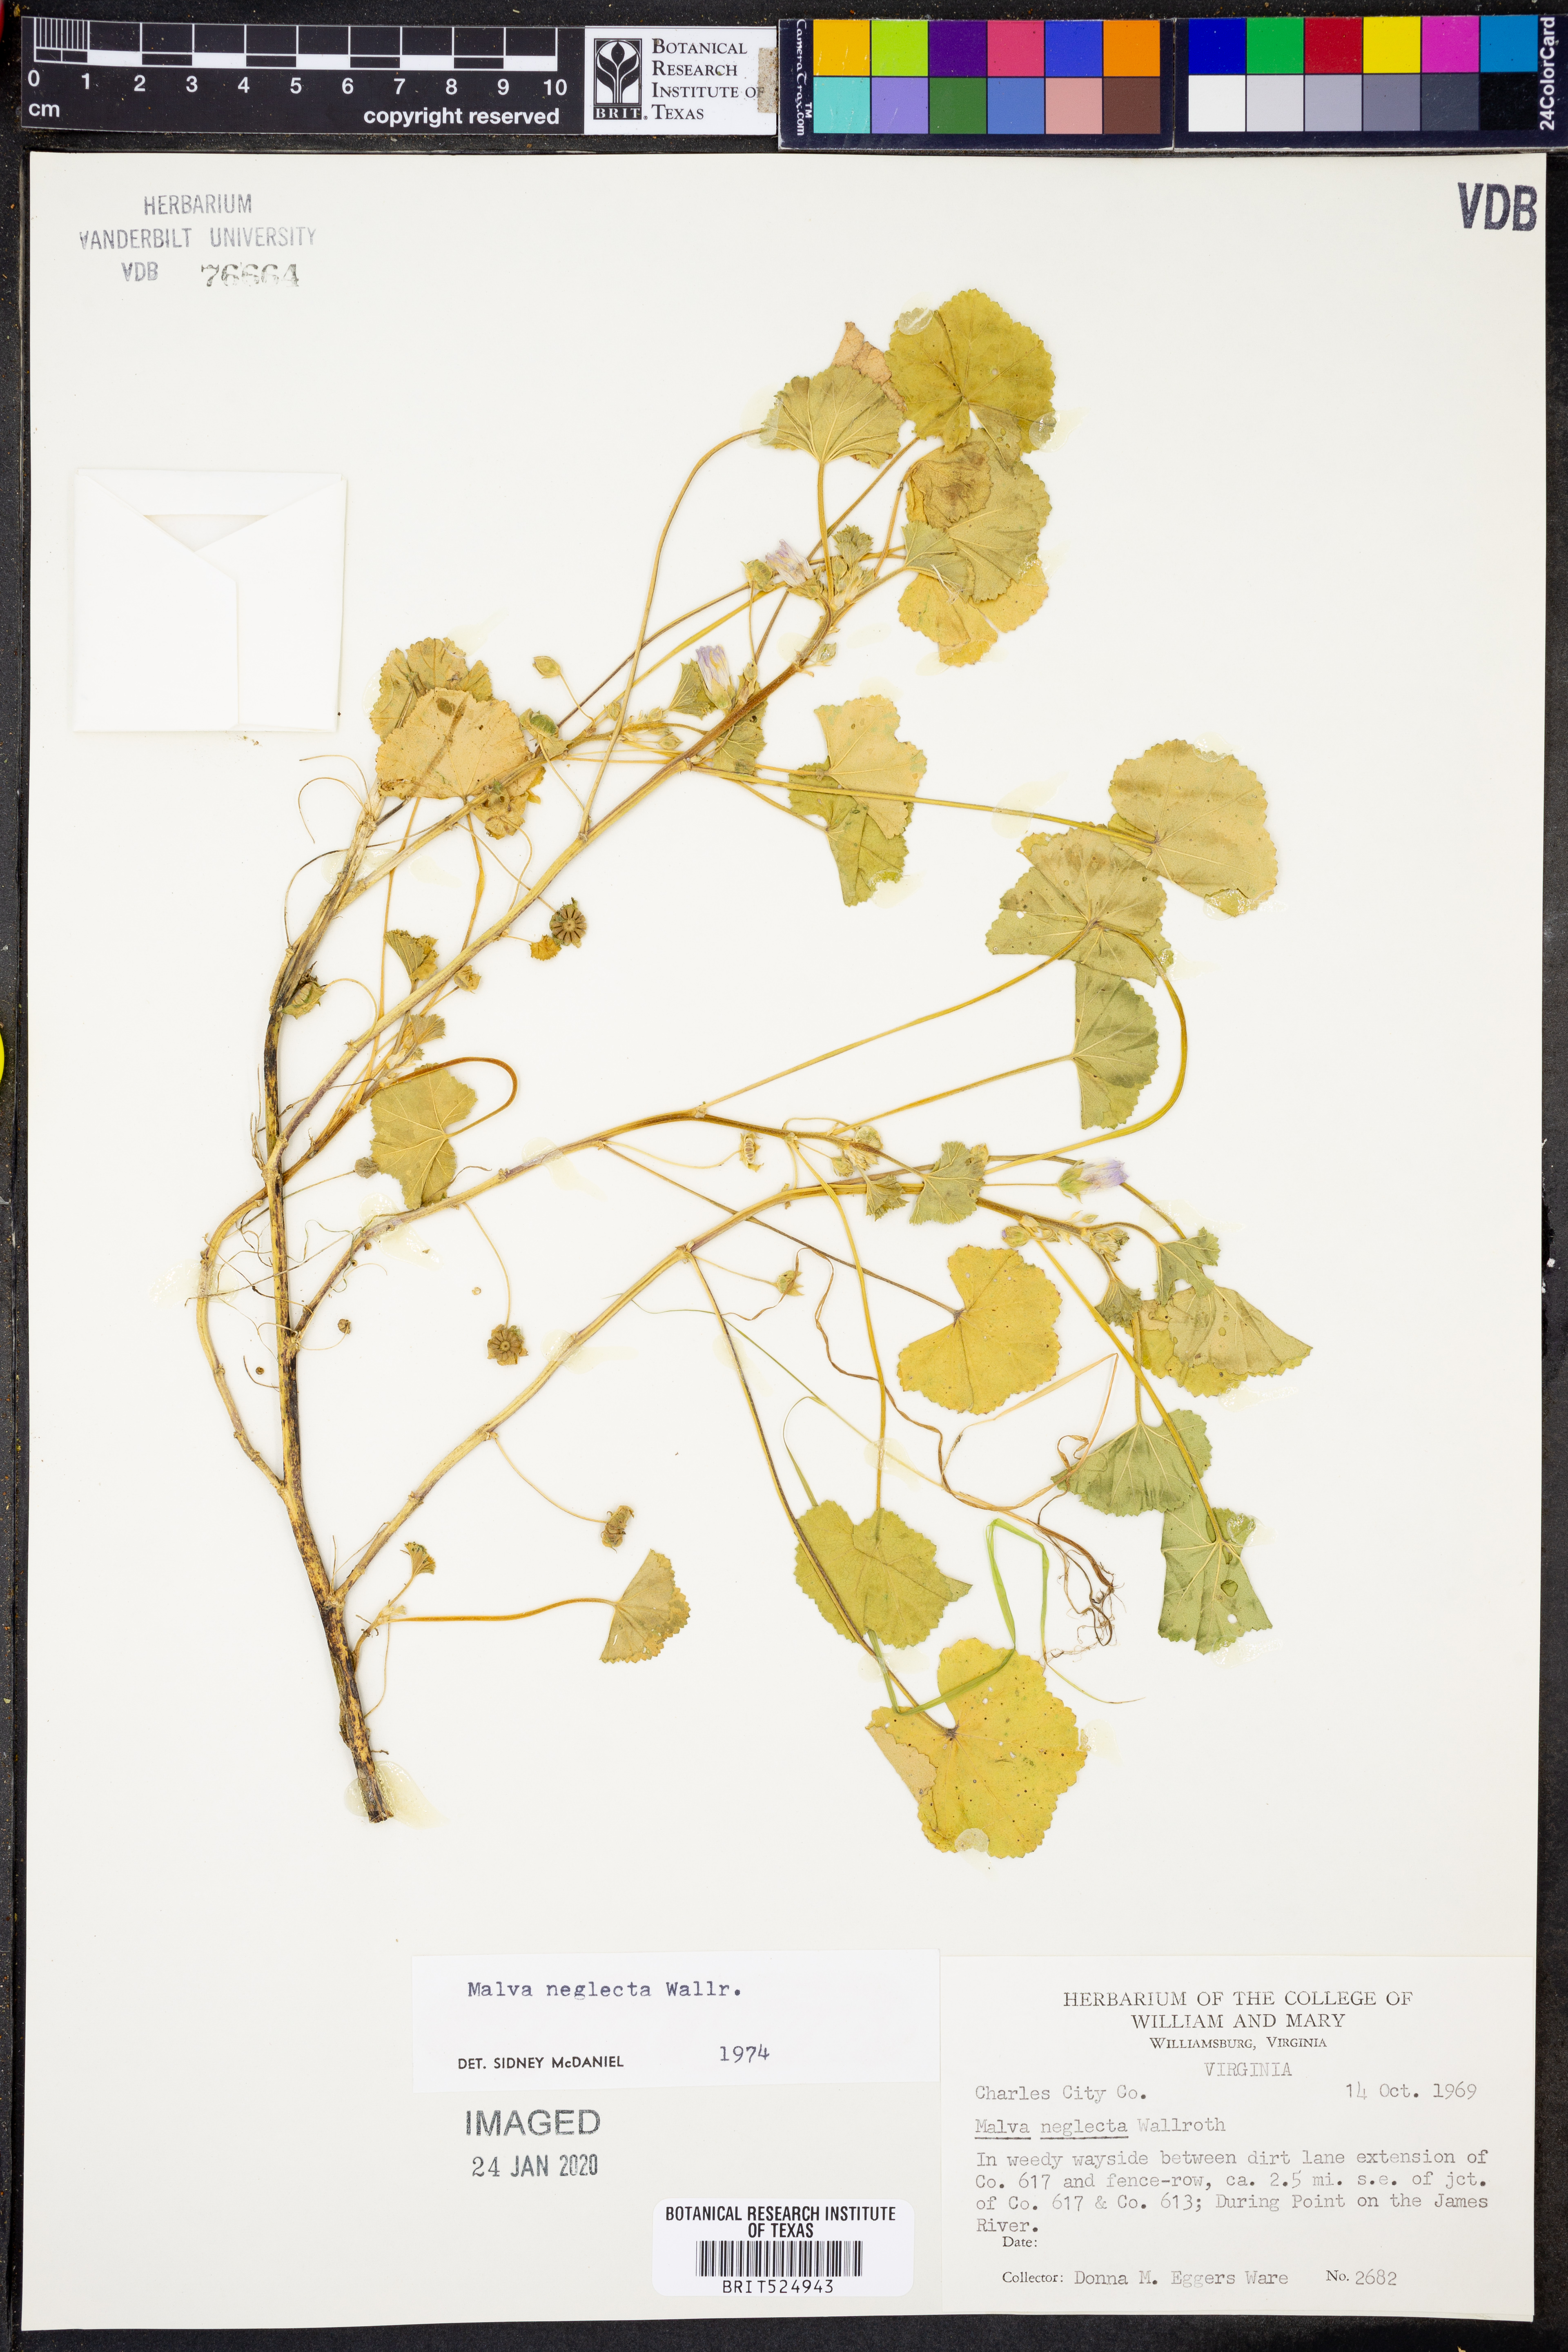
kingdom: Plantae
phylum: Tracheophyta
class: Magnoliopsida
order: Malvales
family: Malvaceae
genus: Malva
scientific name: Malva neglecta
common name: Common mallow
